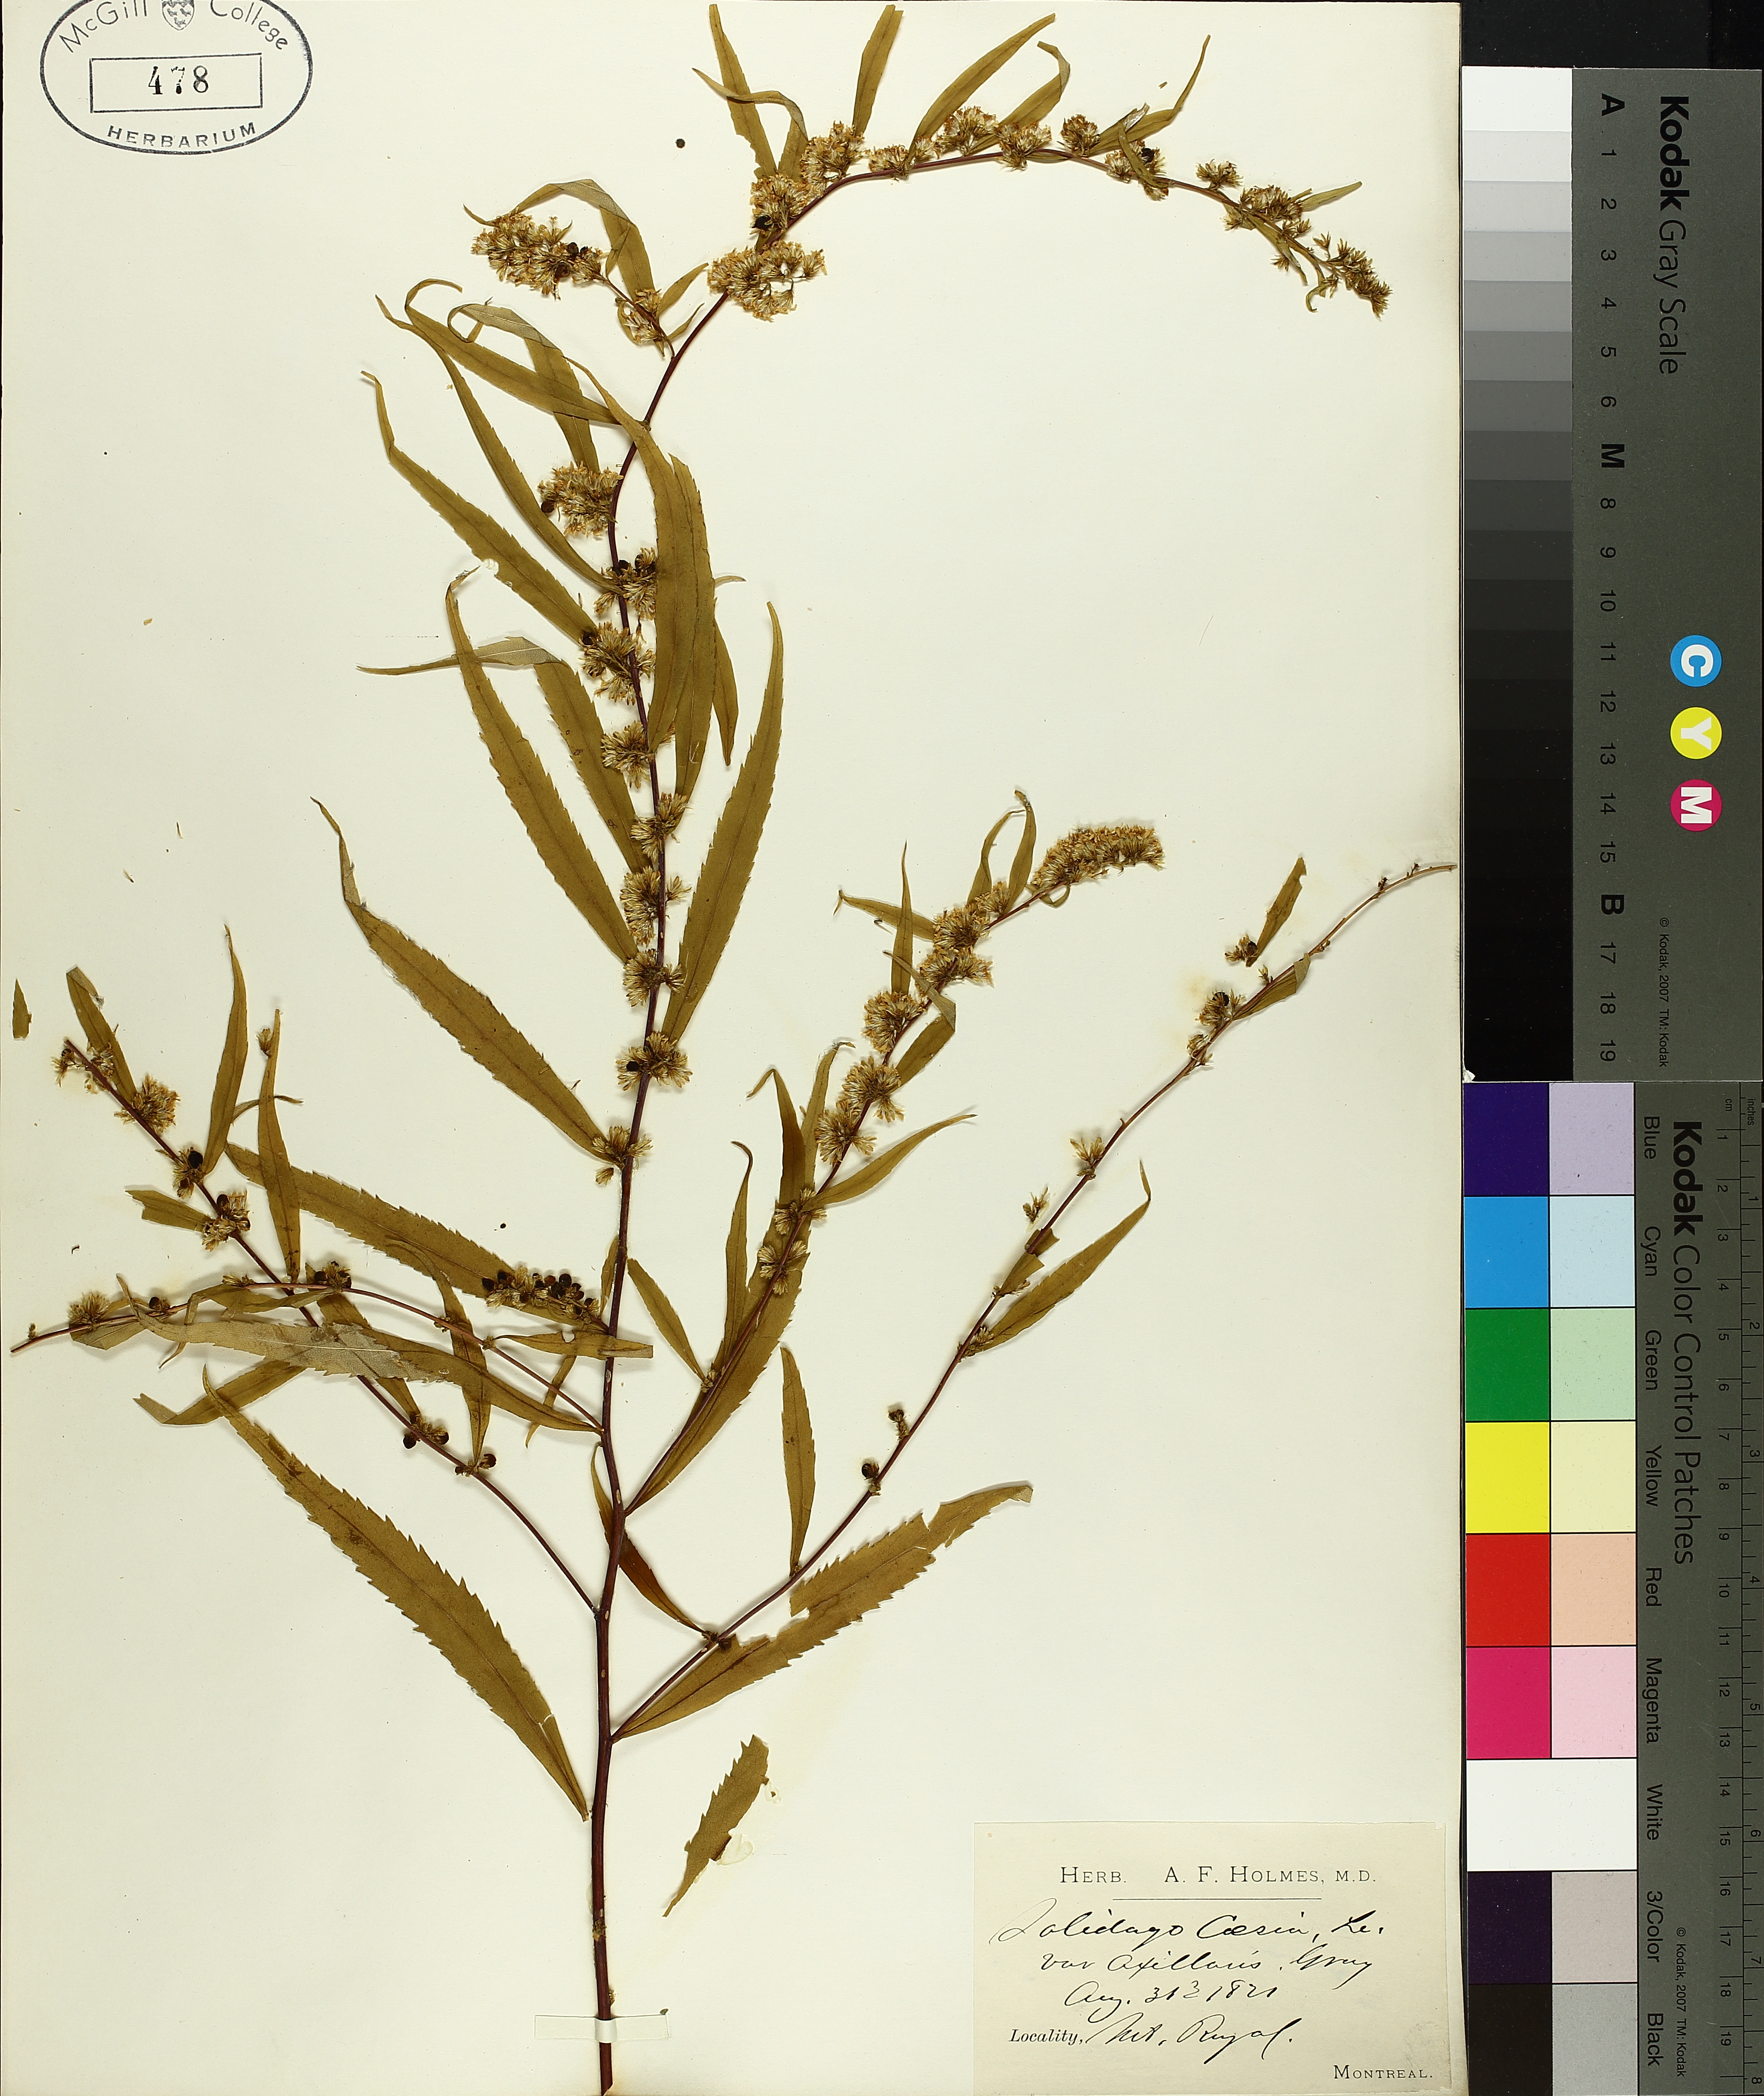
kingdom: Plantae
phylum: Tracheophyta
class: Magnoliopsida
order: Asterales
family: Asteraceae
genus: Solidago
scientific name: Solidago caesia
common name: Woodland goldenrod
